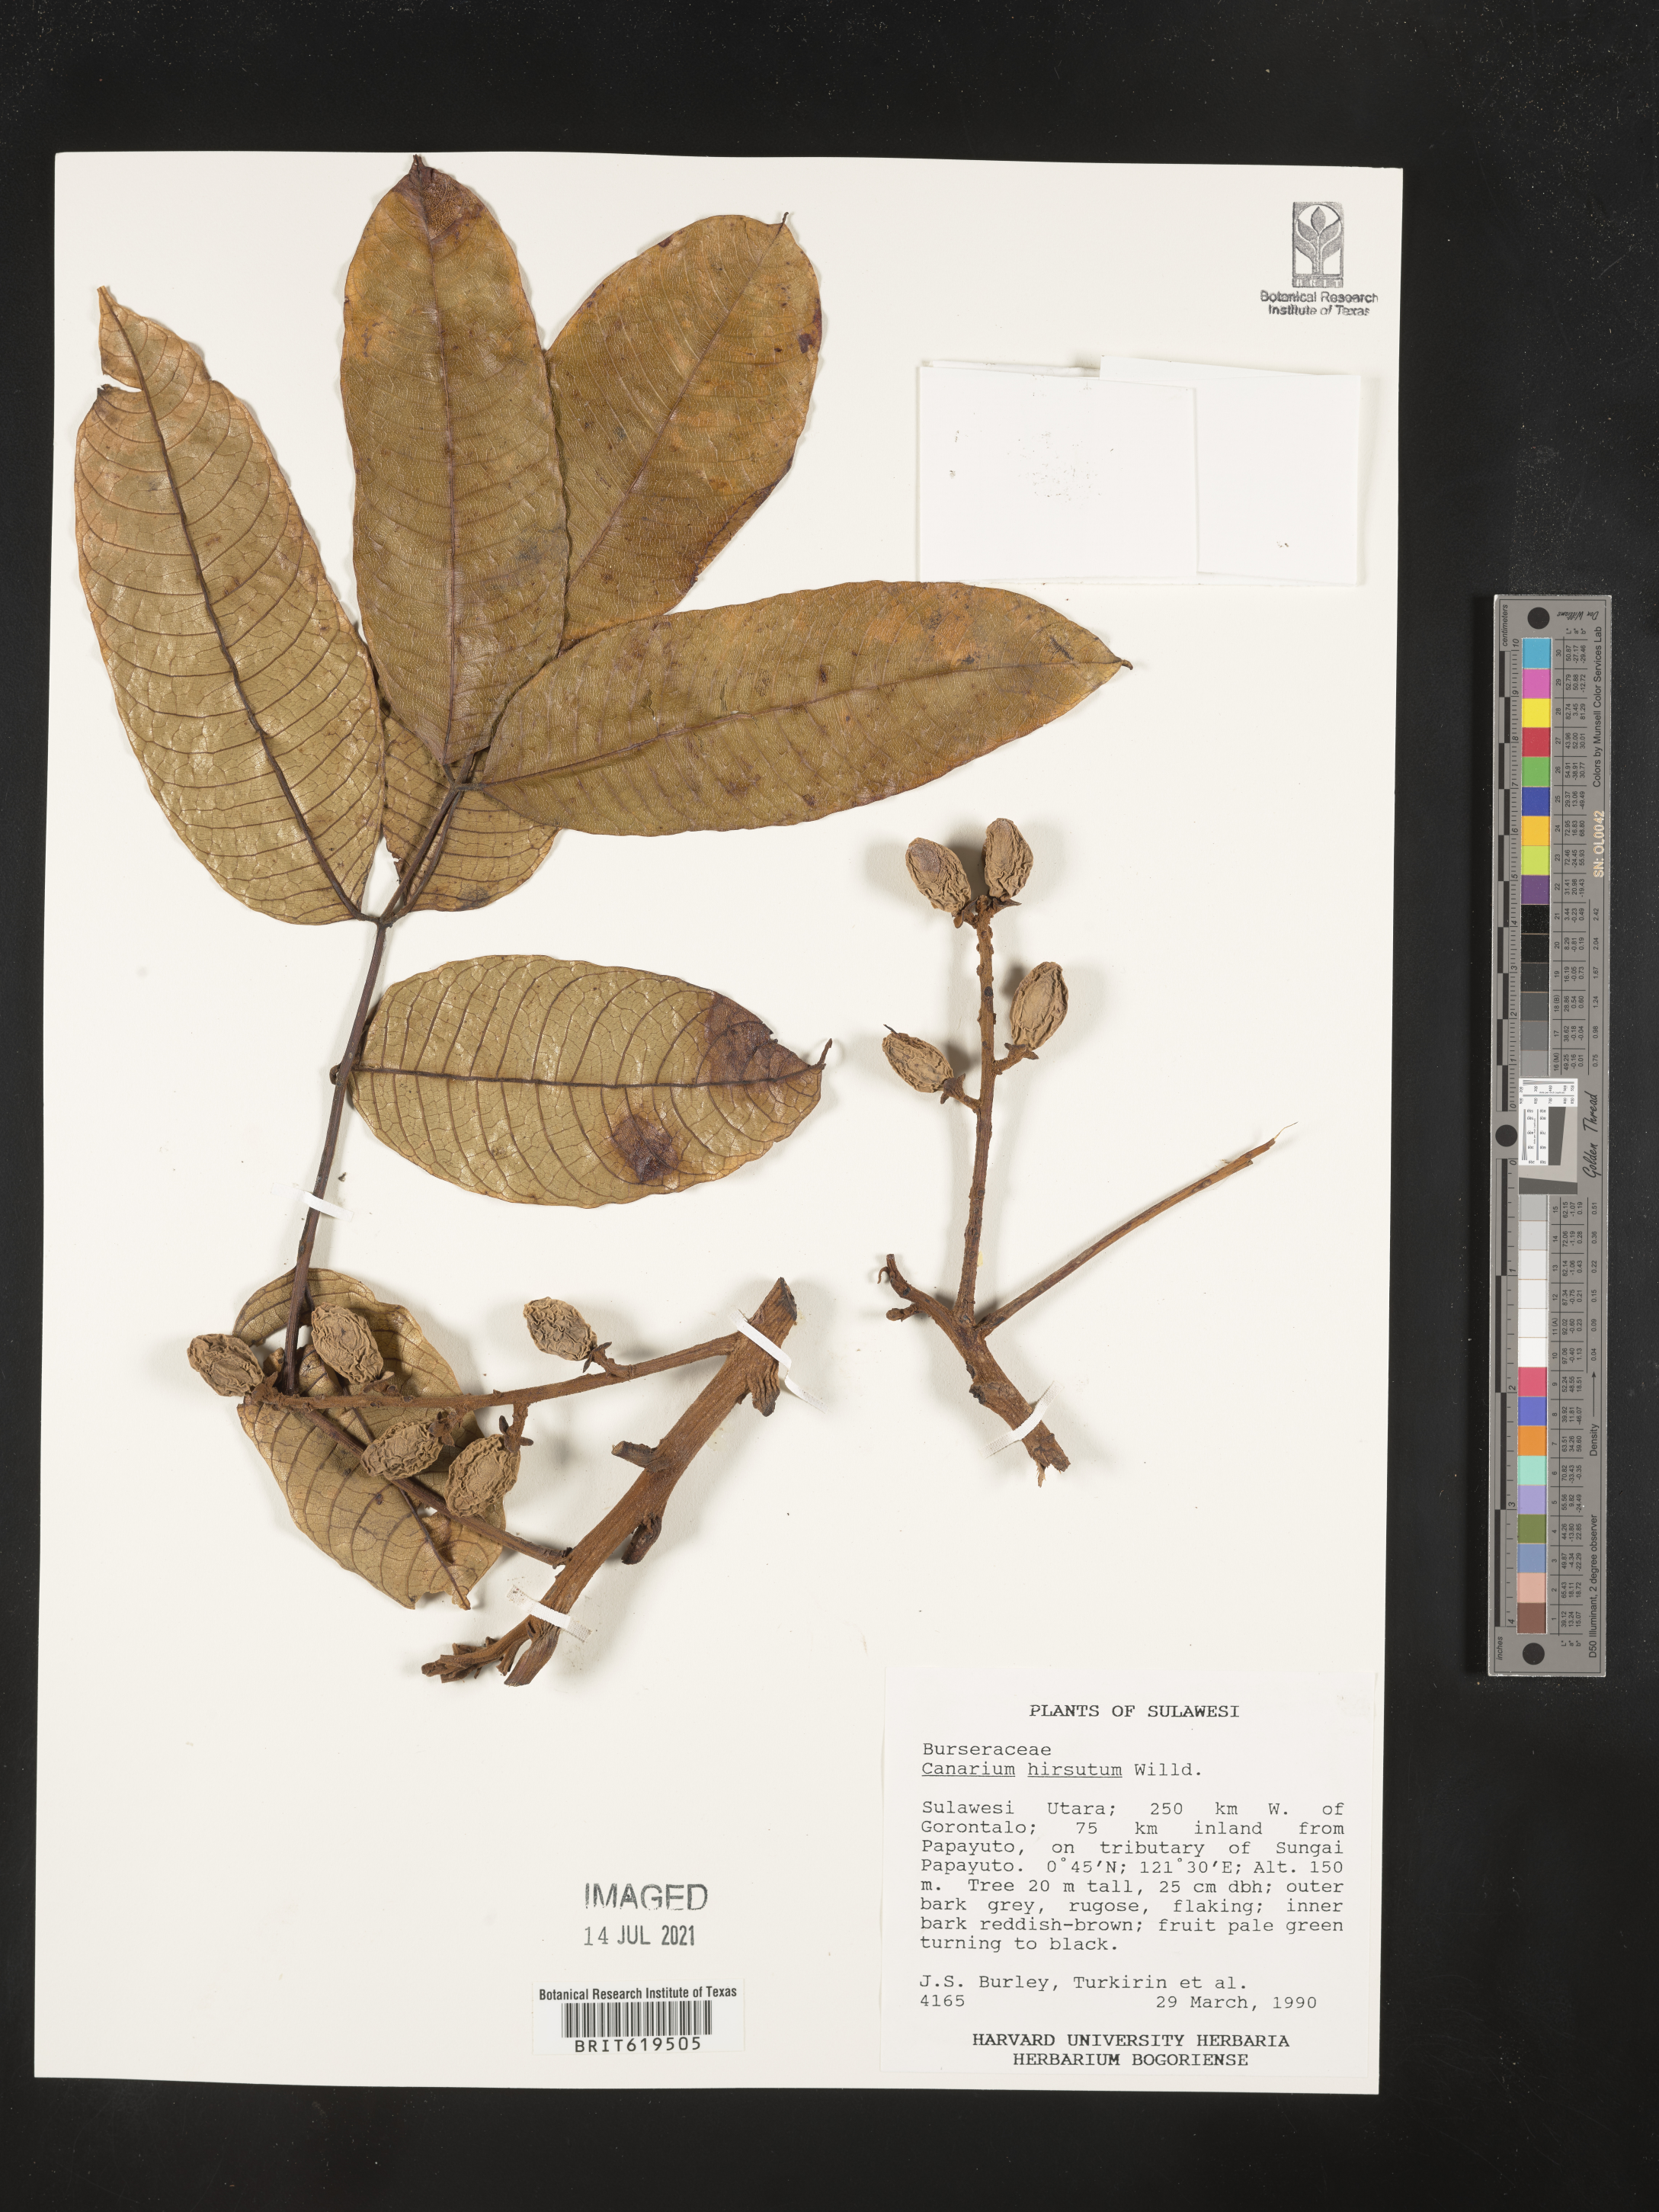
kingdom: Plantae
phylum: Tracheophyta
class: Magnoliopsida
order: Sapindales
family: Burseraceae
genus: Canarium
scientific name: Canarium hirsutum
